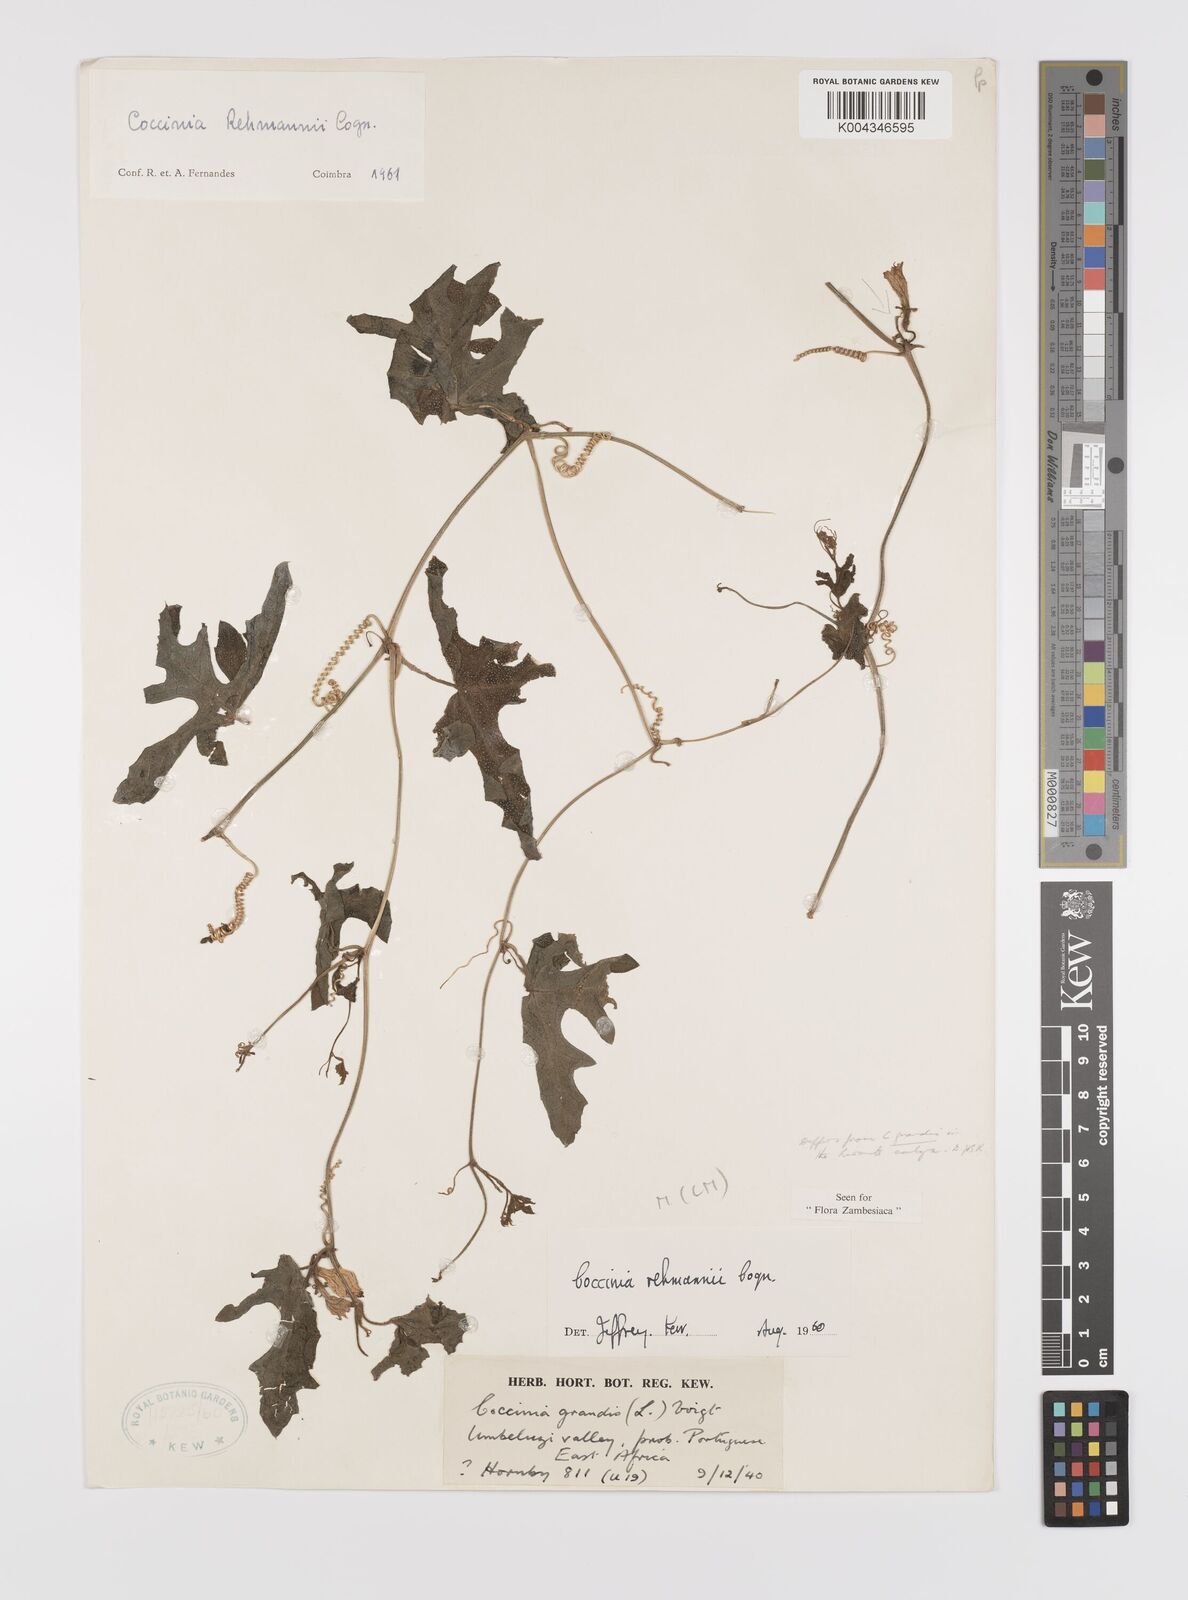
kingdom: Plantae
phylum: Tracheophyta
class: Magnoliopsida
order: Cucurbitales
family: Cucurbitaceae
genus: Coccinia
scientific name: Coccinia rehmannii
